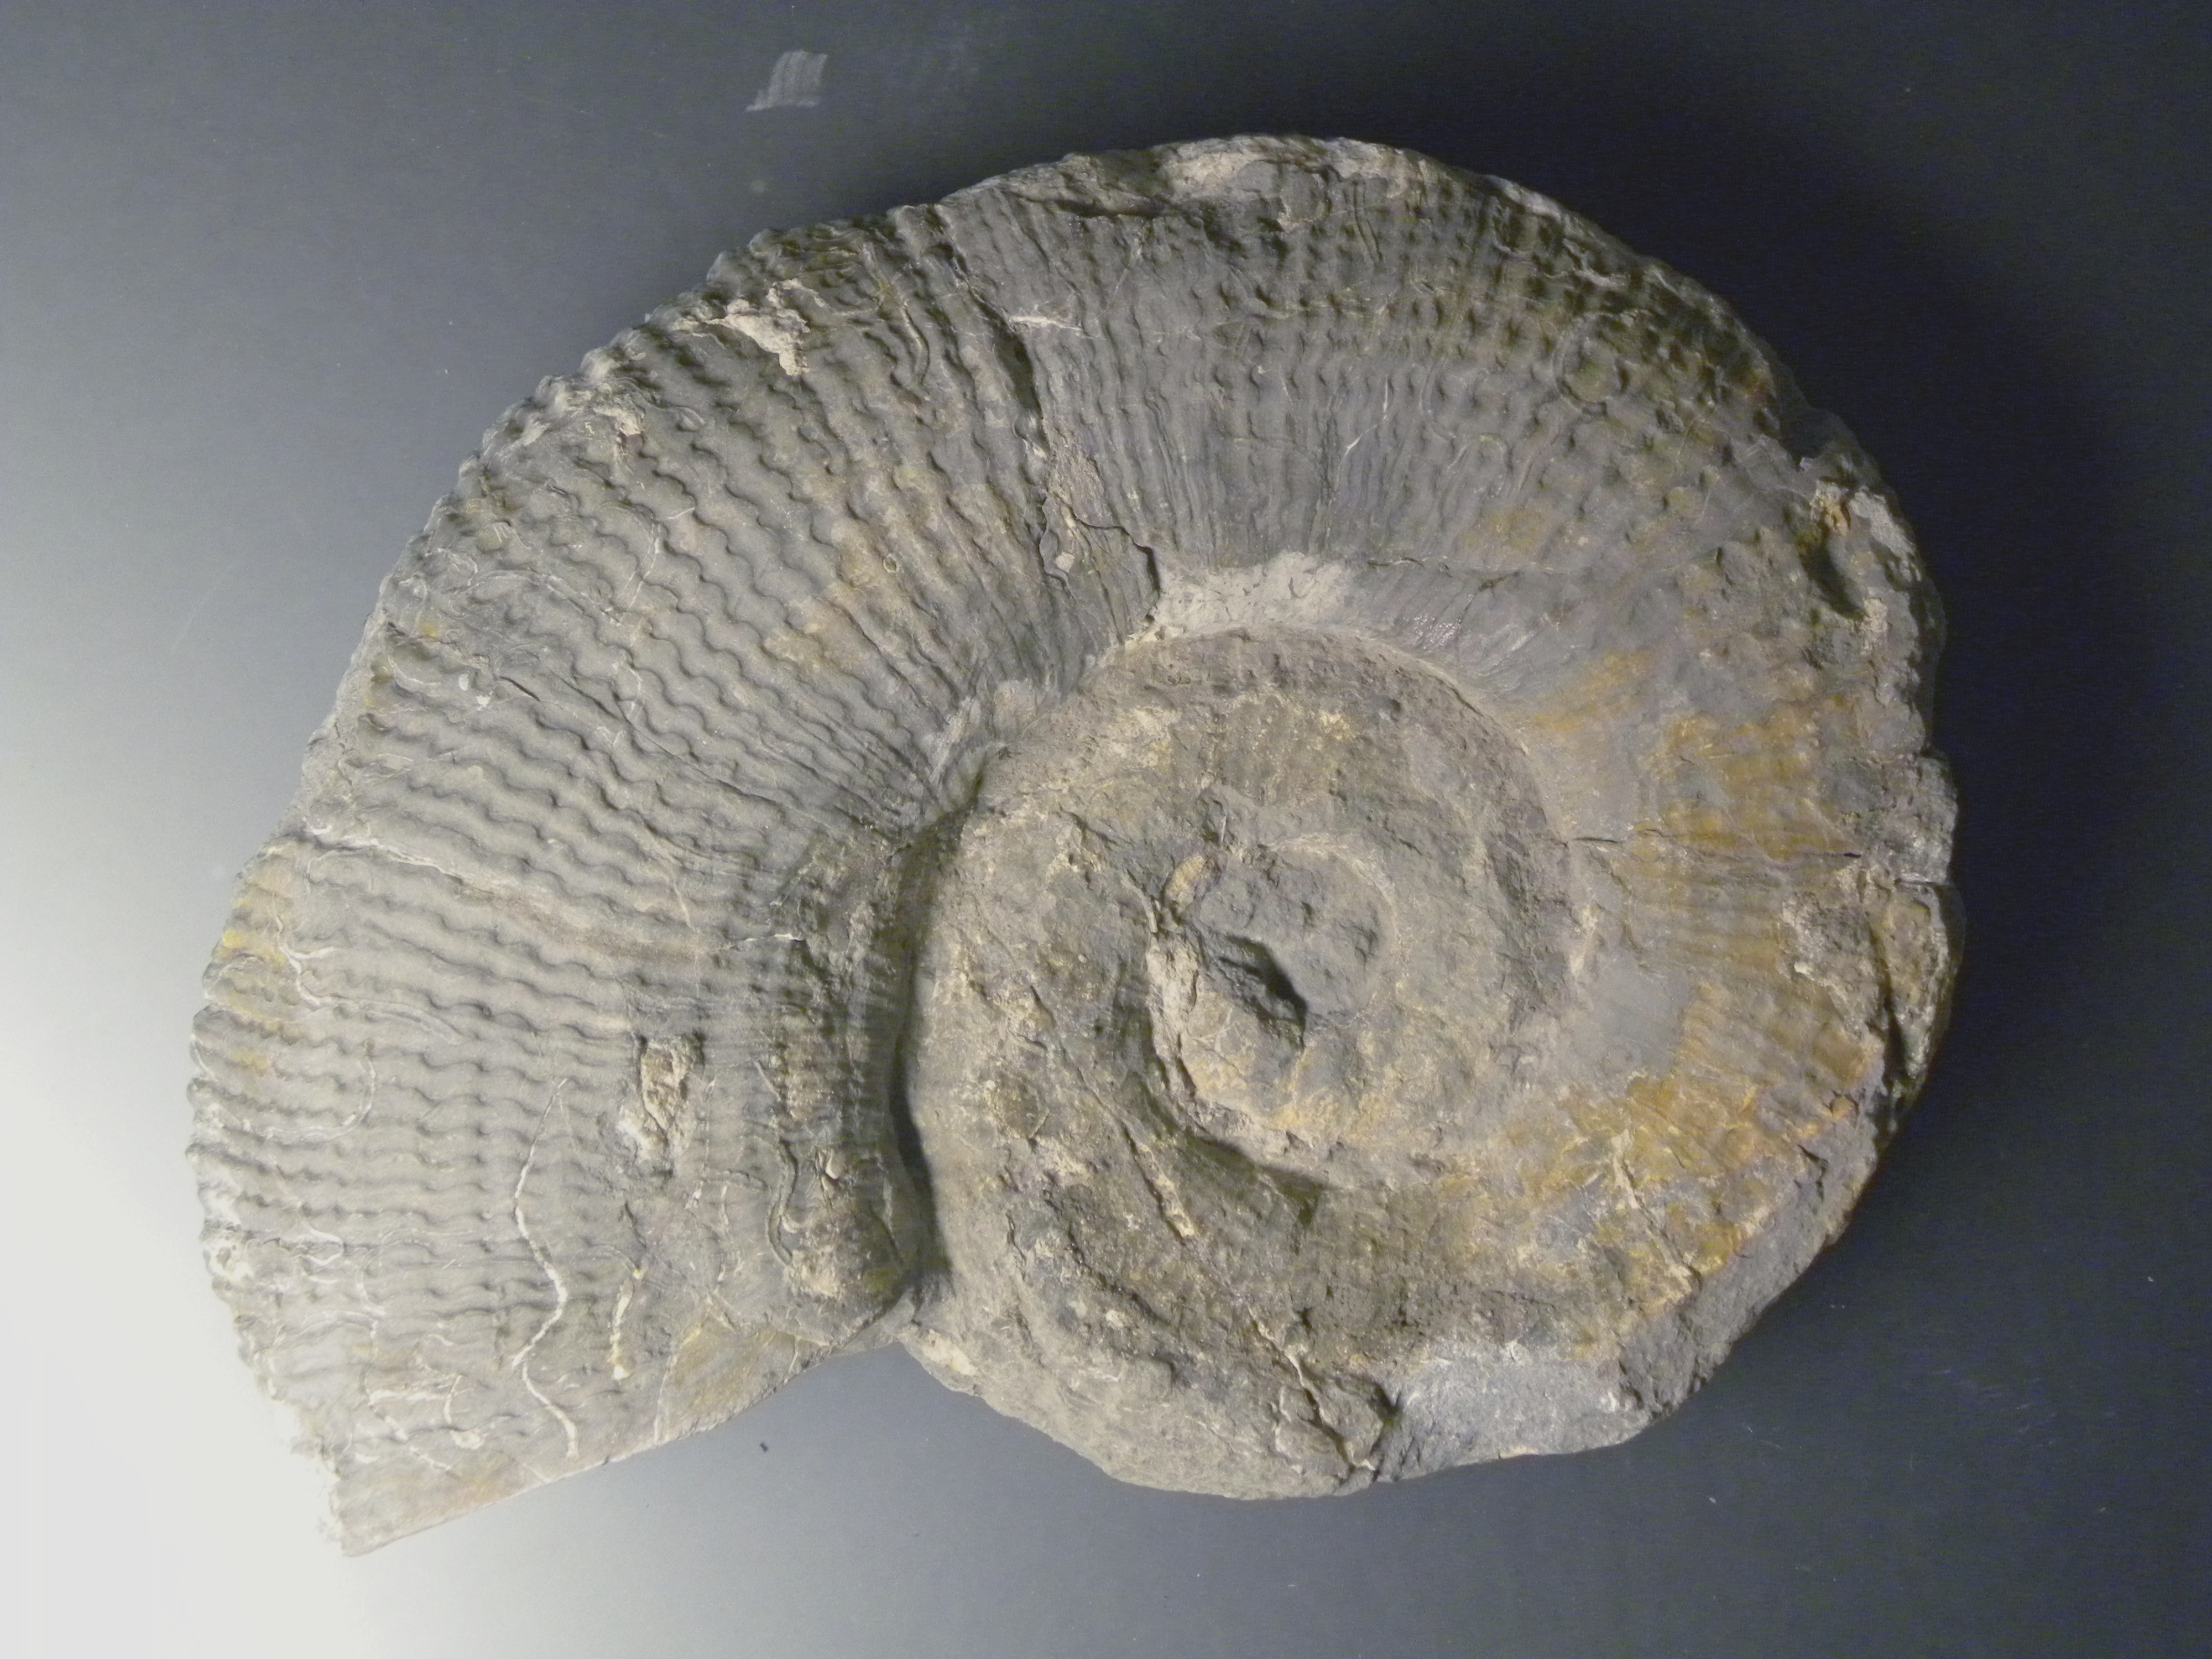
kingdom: Animalia
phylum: Mollusca
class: Cephalopoda
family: Lytoceratidae
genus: Lytoceras
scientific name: Lytoceras cornucopia
